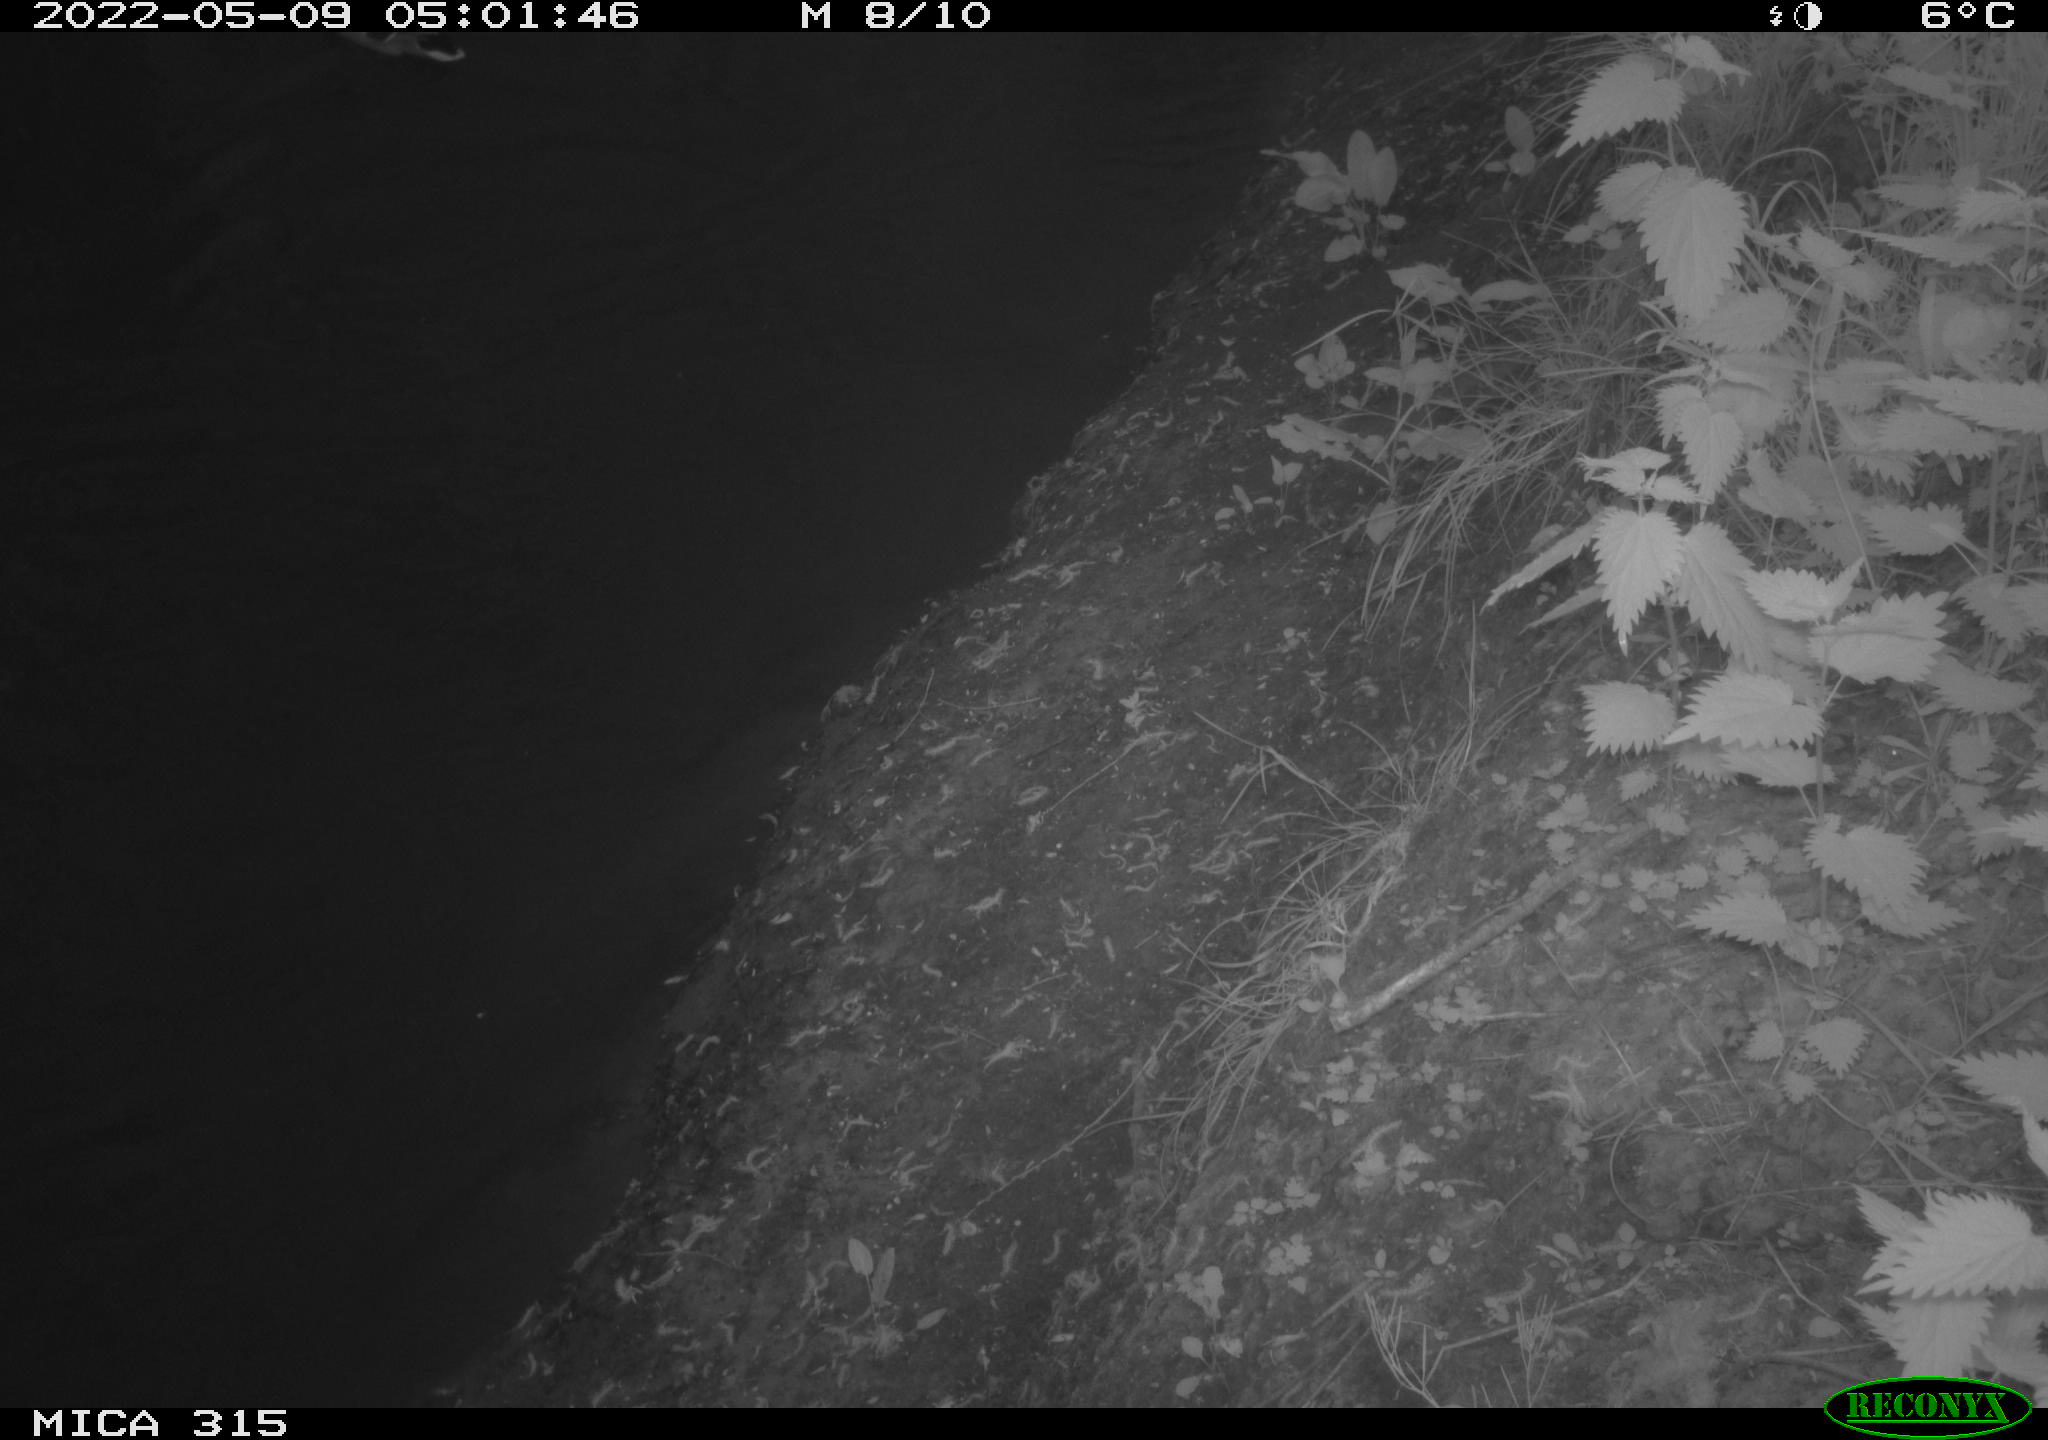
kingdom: Animalia
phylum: Chordata
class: Aves
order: Anseriformes
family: Anatidae
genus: Anas
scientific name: Anas platyrhynchos
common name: Mallard
